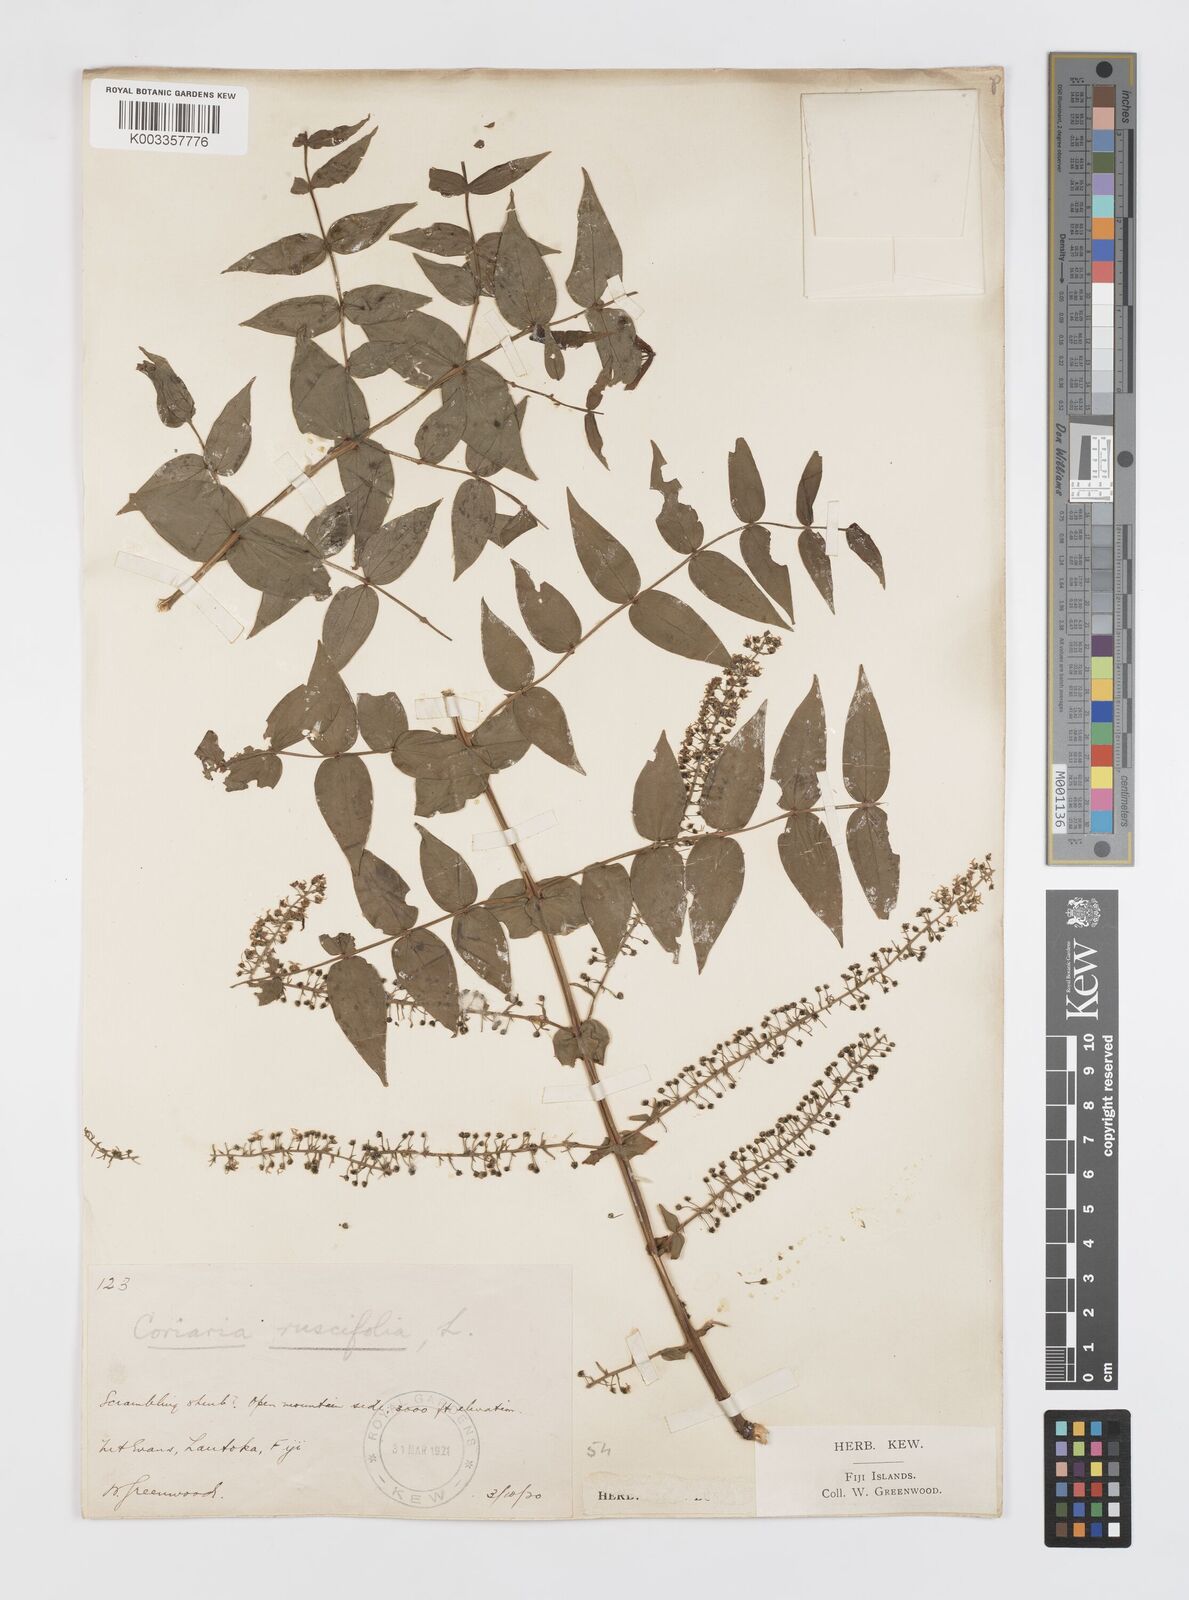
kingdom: Plantae
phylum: Tracheophyta
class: Magnoliopsida
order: Cucurbitales
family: Coriariaceae
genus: Coriaria
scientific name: Coriaria ruscifolia
